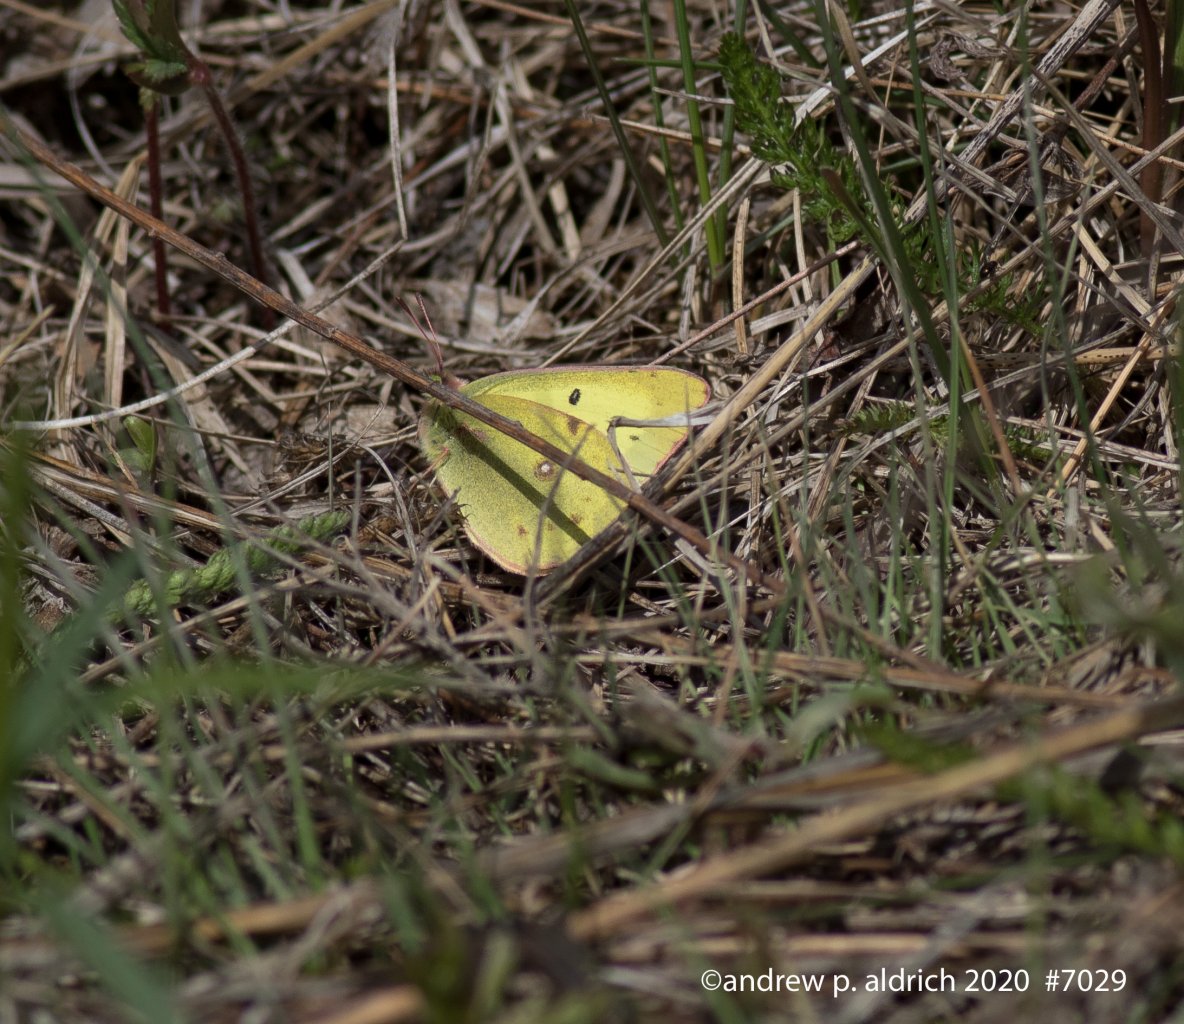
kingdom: Animalia
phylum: Arthropoda
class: Insecta
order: Lepidoptera
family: Pieridae
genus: Colias
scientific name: Colias philodice
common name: Clouded Sulphur
